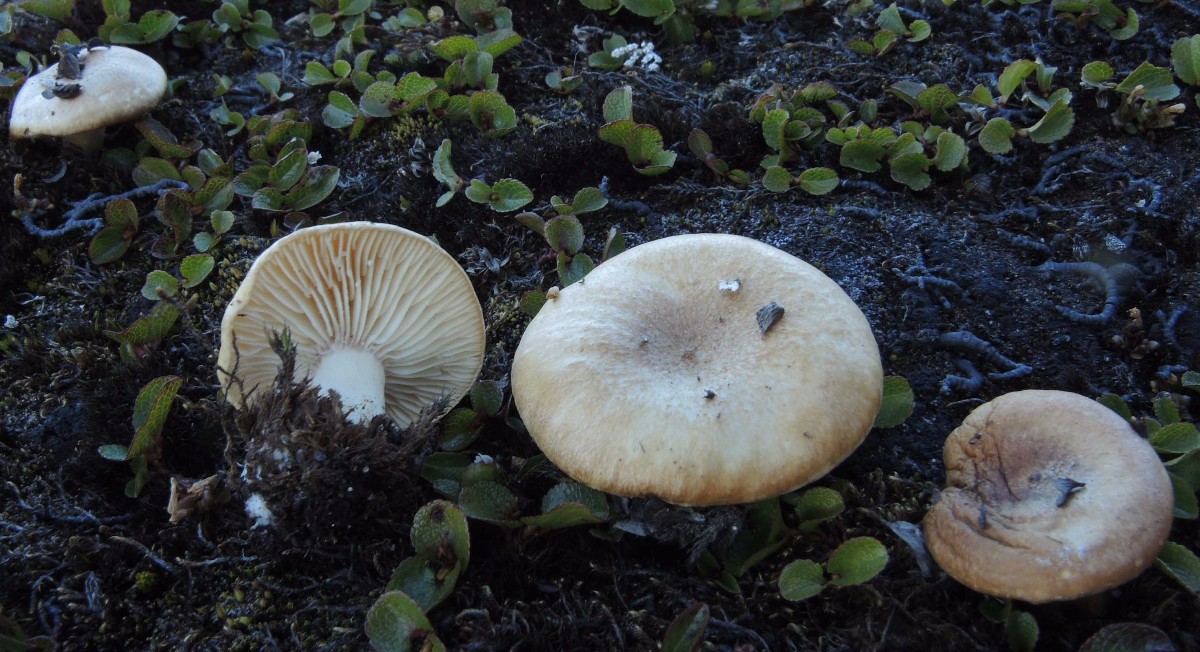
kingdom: Fungi
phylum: Basidiomycota
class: Agaricomycetes
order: Russulales
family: Russulaceae
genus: Lactarius
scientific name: Lactarius salicis-herbaceae
